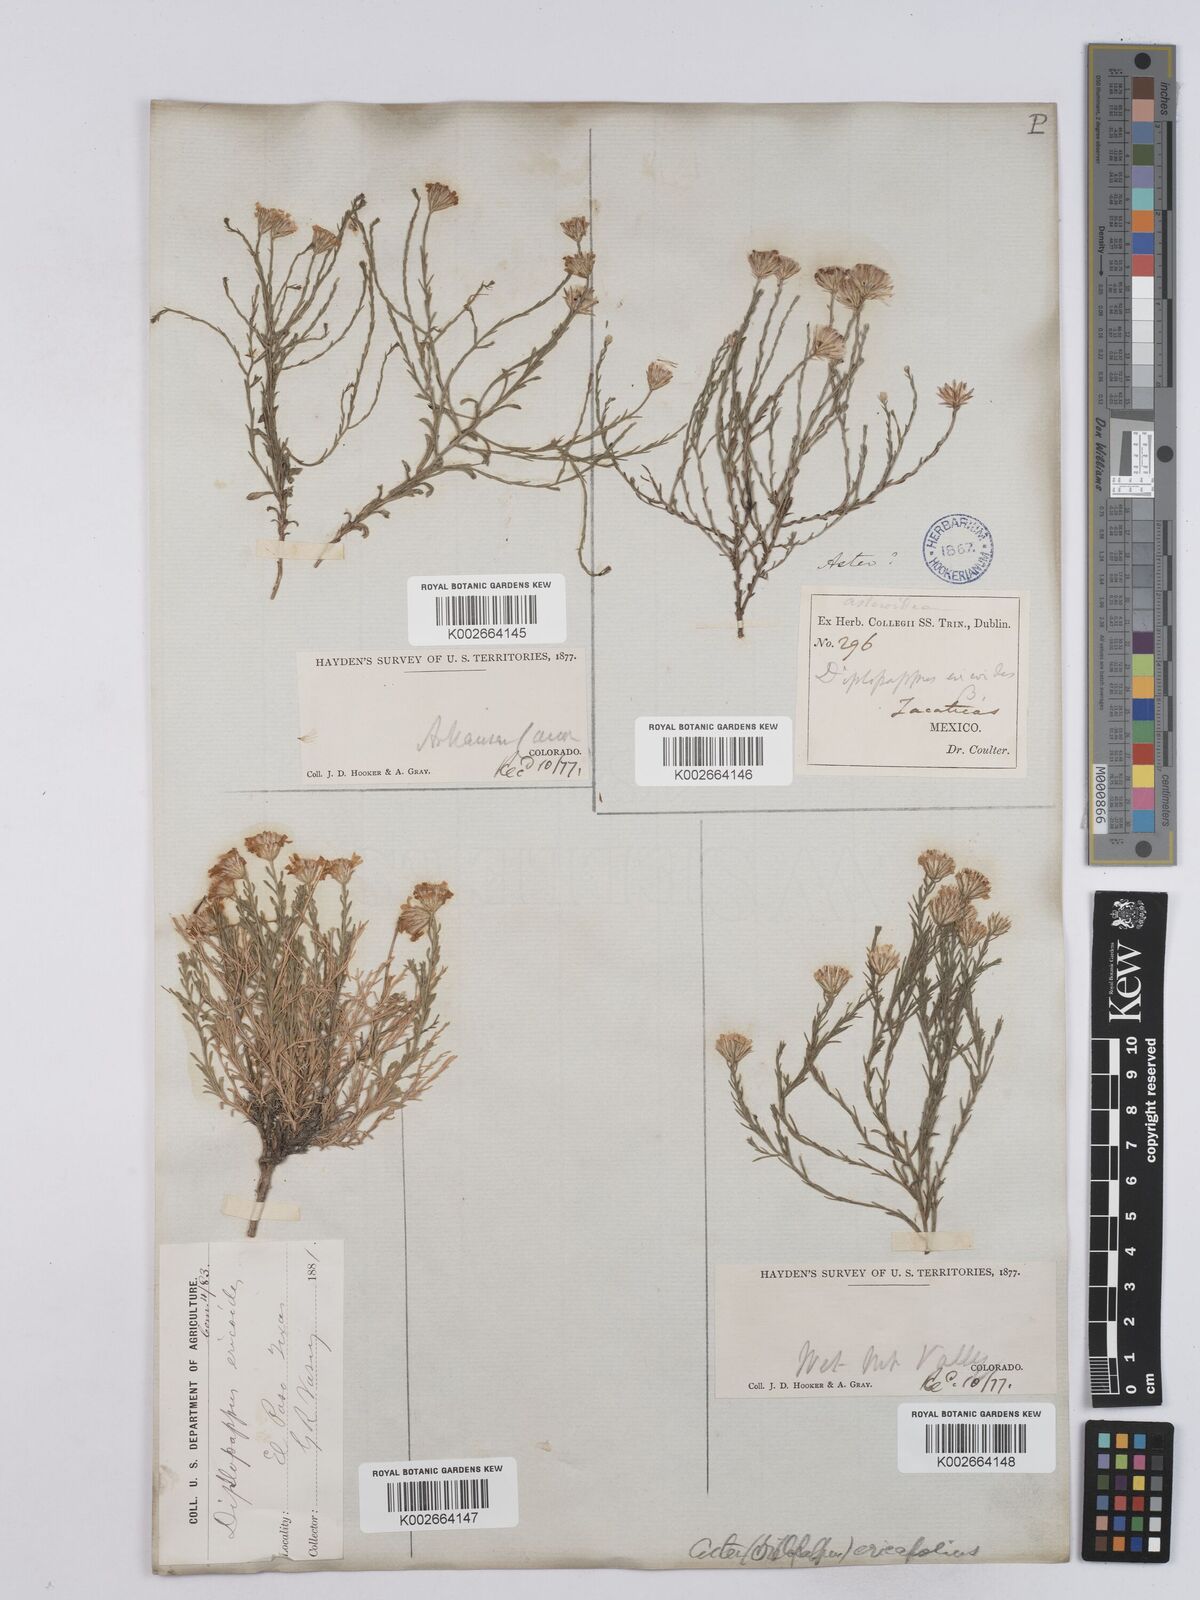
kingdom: Plantae
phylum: Tracheophyta
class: Magnoliopsida
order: Asterales
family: Asteraceae
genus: Chaetopappa
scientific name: Chaetopappa ericoides
